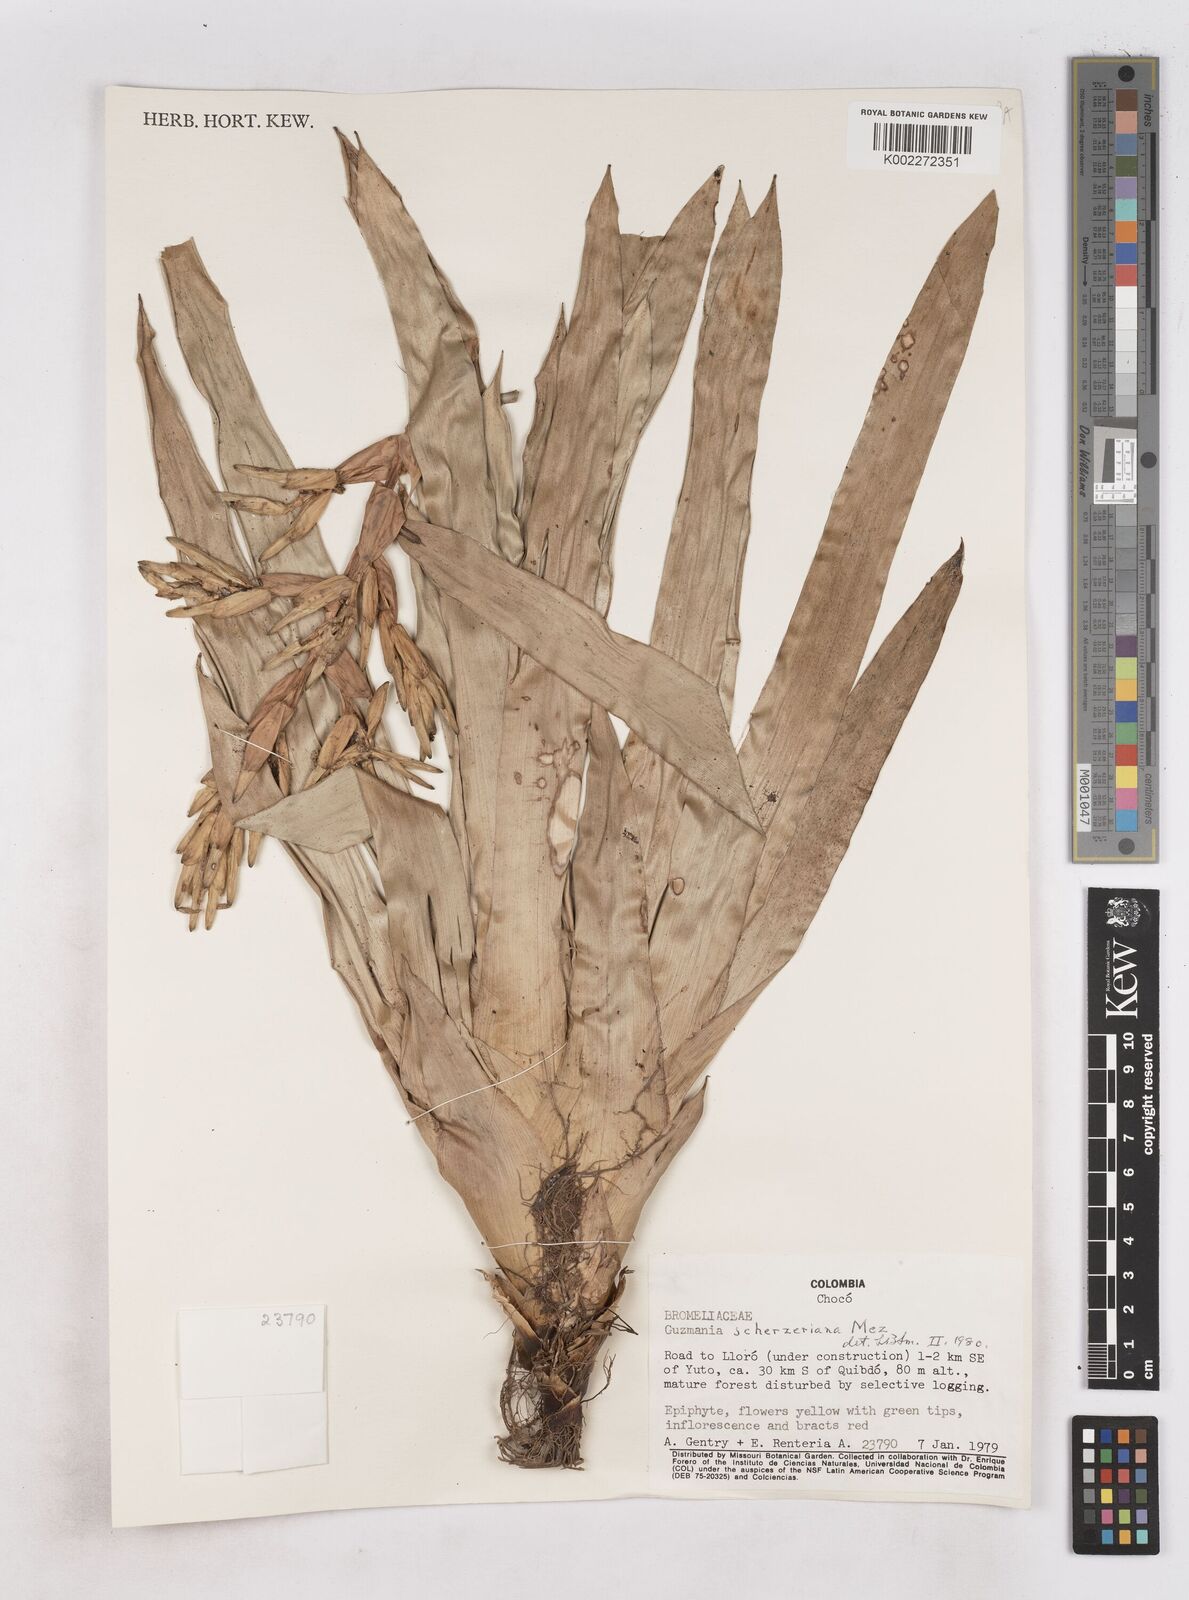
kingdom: Plantae
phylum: Tracheophyta
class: Liliopsida
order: Poales
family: Bromeliaceae
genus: Guzmania
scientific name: Guzmania scherzeriana
